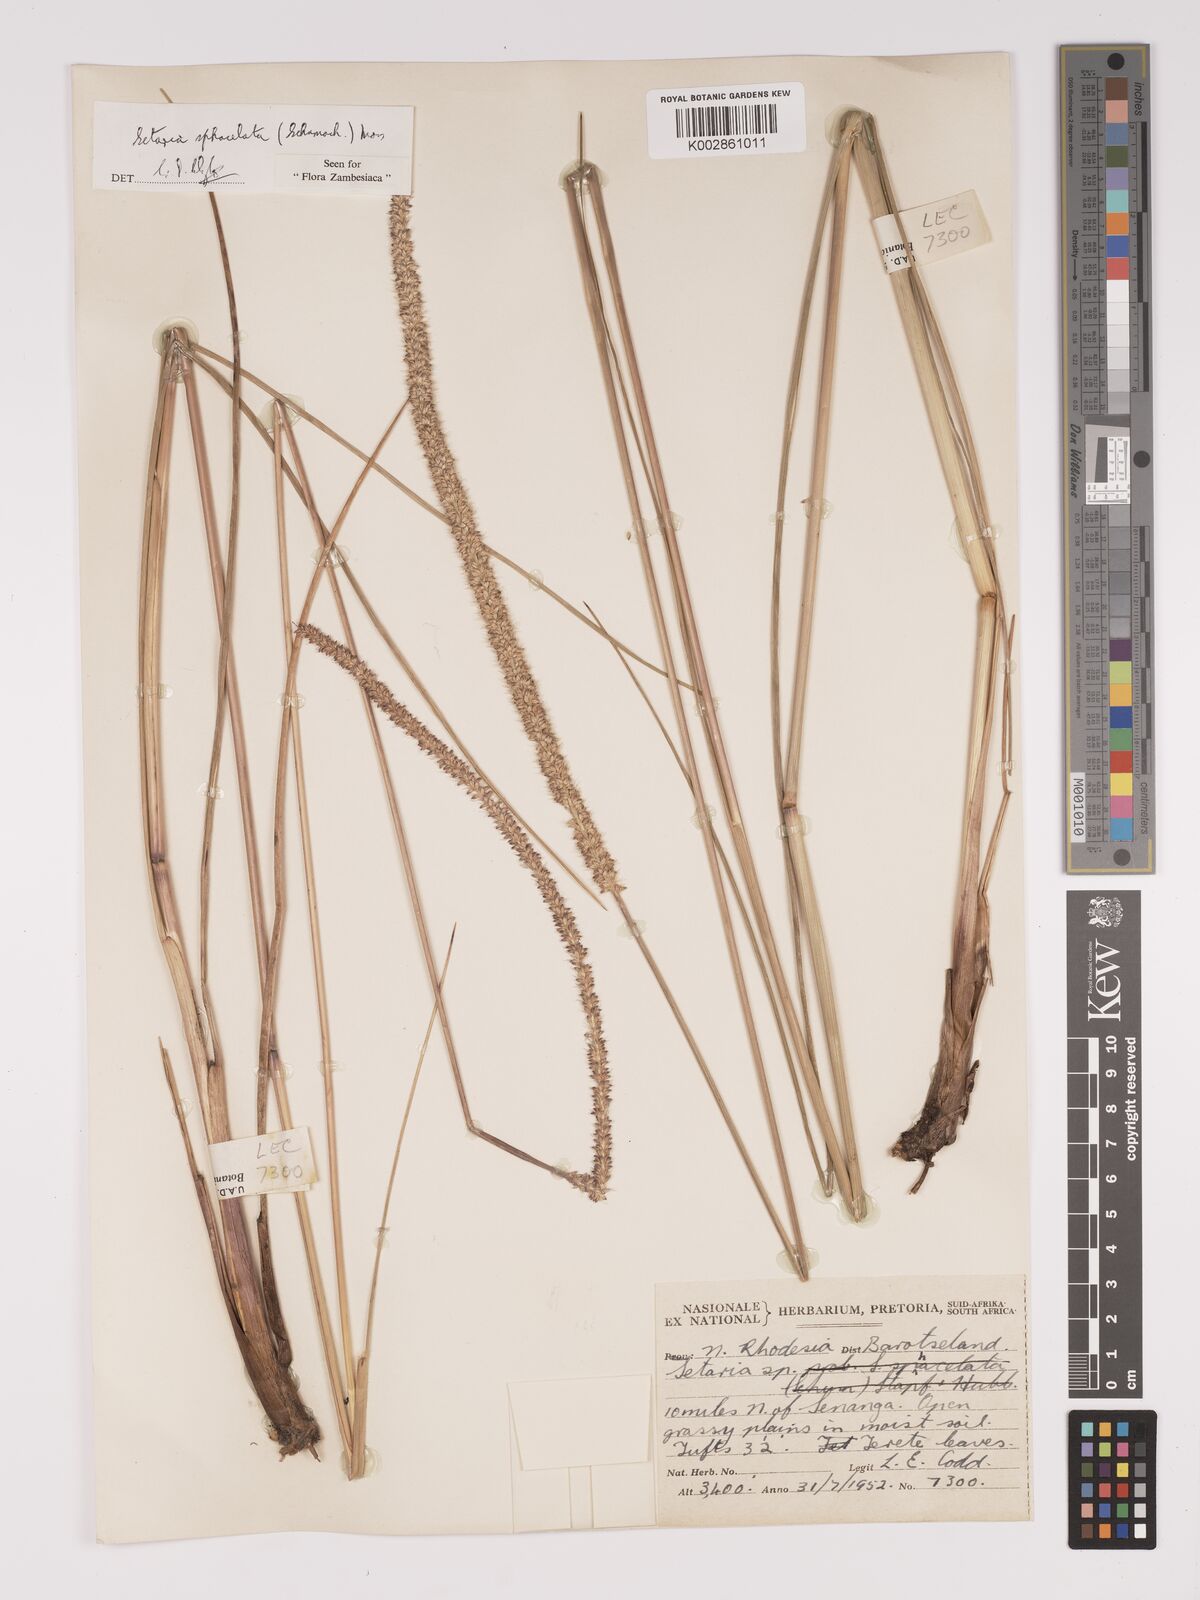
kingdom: Plantae
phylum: Tracheophyta
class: Liliopsida
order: Poales
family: Poaceae
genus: Setaria
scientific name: Setaria sphacelata
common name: African bristlegrass
